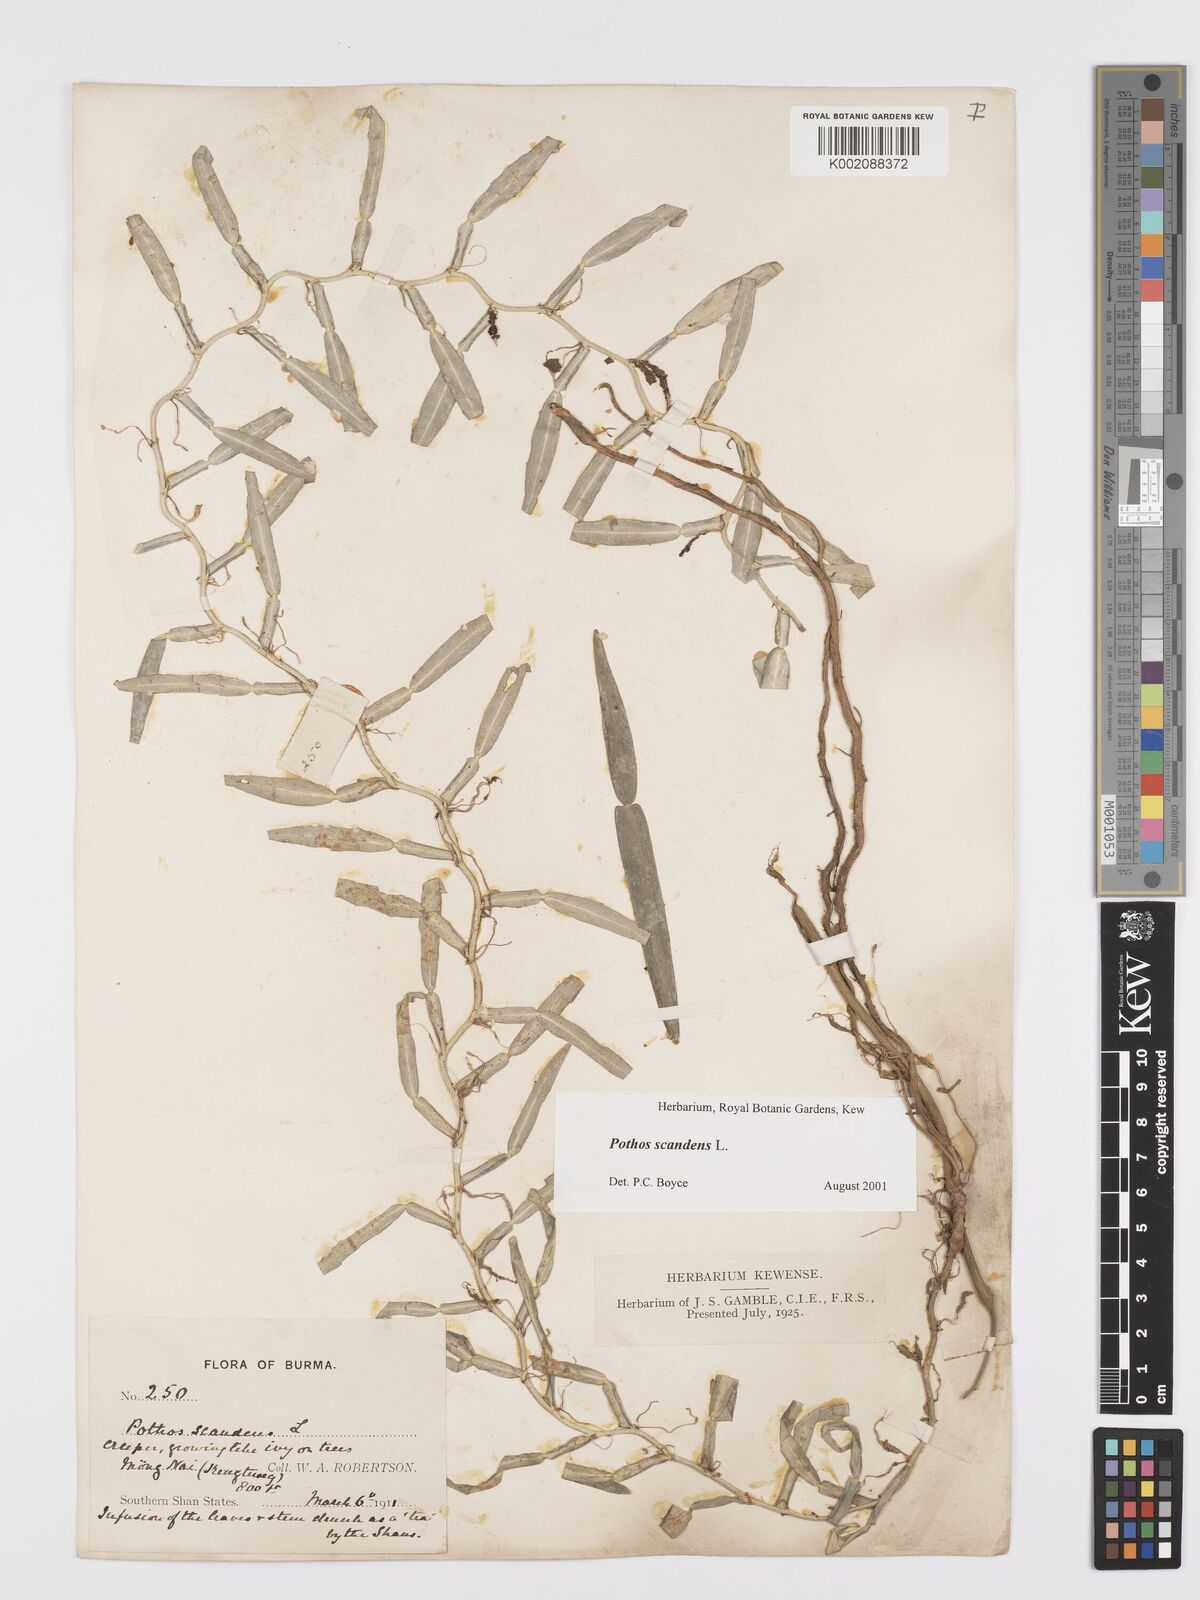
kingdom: Plantae
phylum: Tracheophyta
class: Liliopsida
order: Alismatales
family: Araceae
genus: Pothos
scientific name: Pothos scandens
